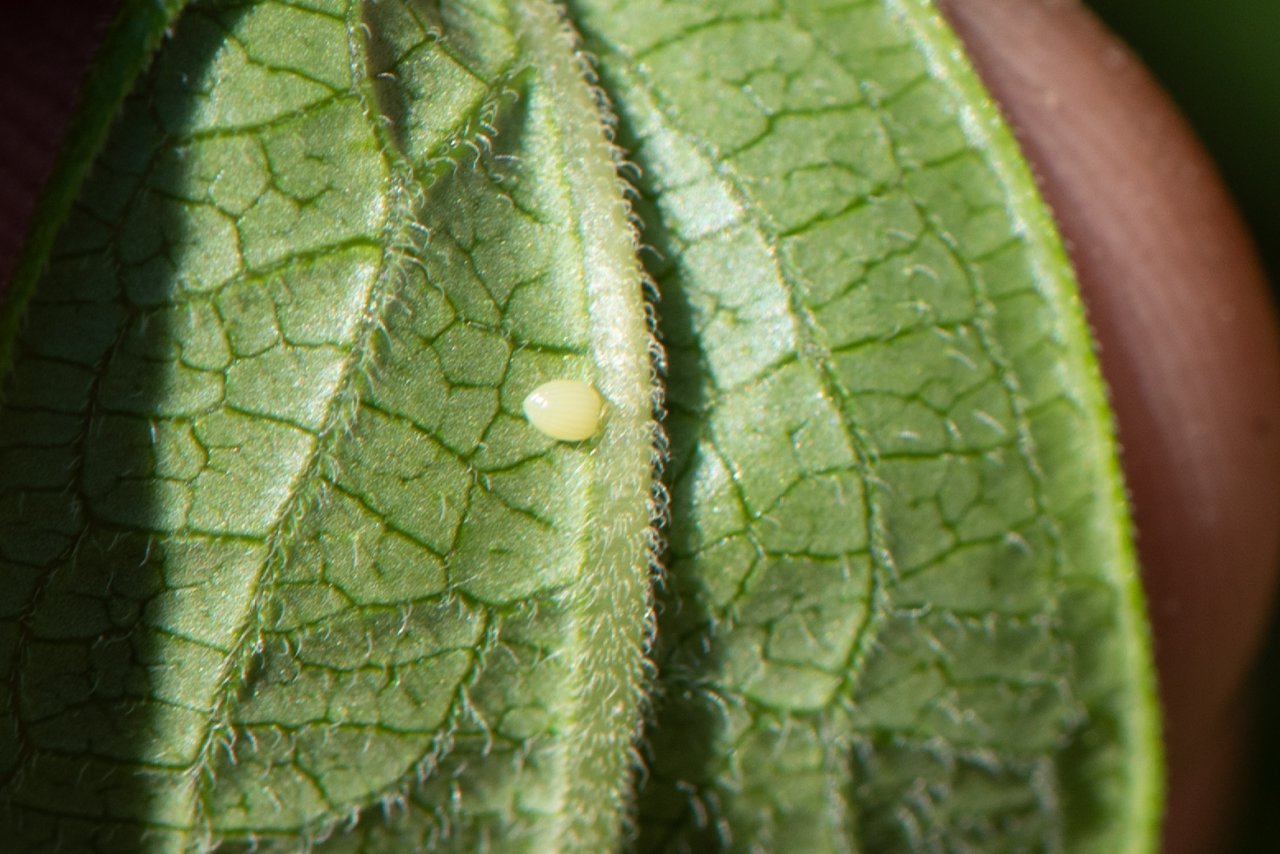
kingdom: Animalia
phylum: Arthropoda
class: Insecta
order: Lepidoptera
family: Nymphalidae
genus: Danaus
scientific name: Danaus plexippus
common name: Monarch
